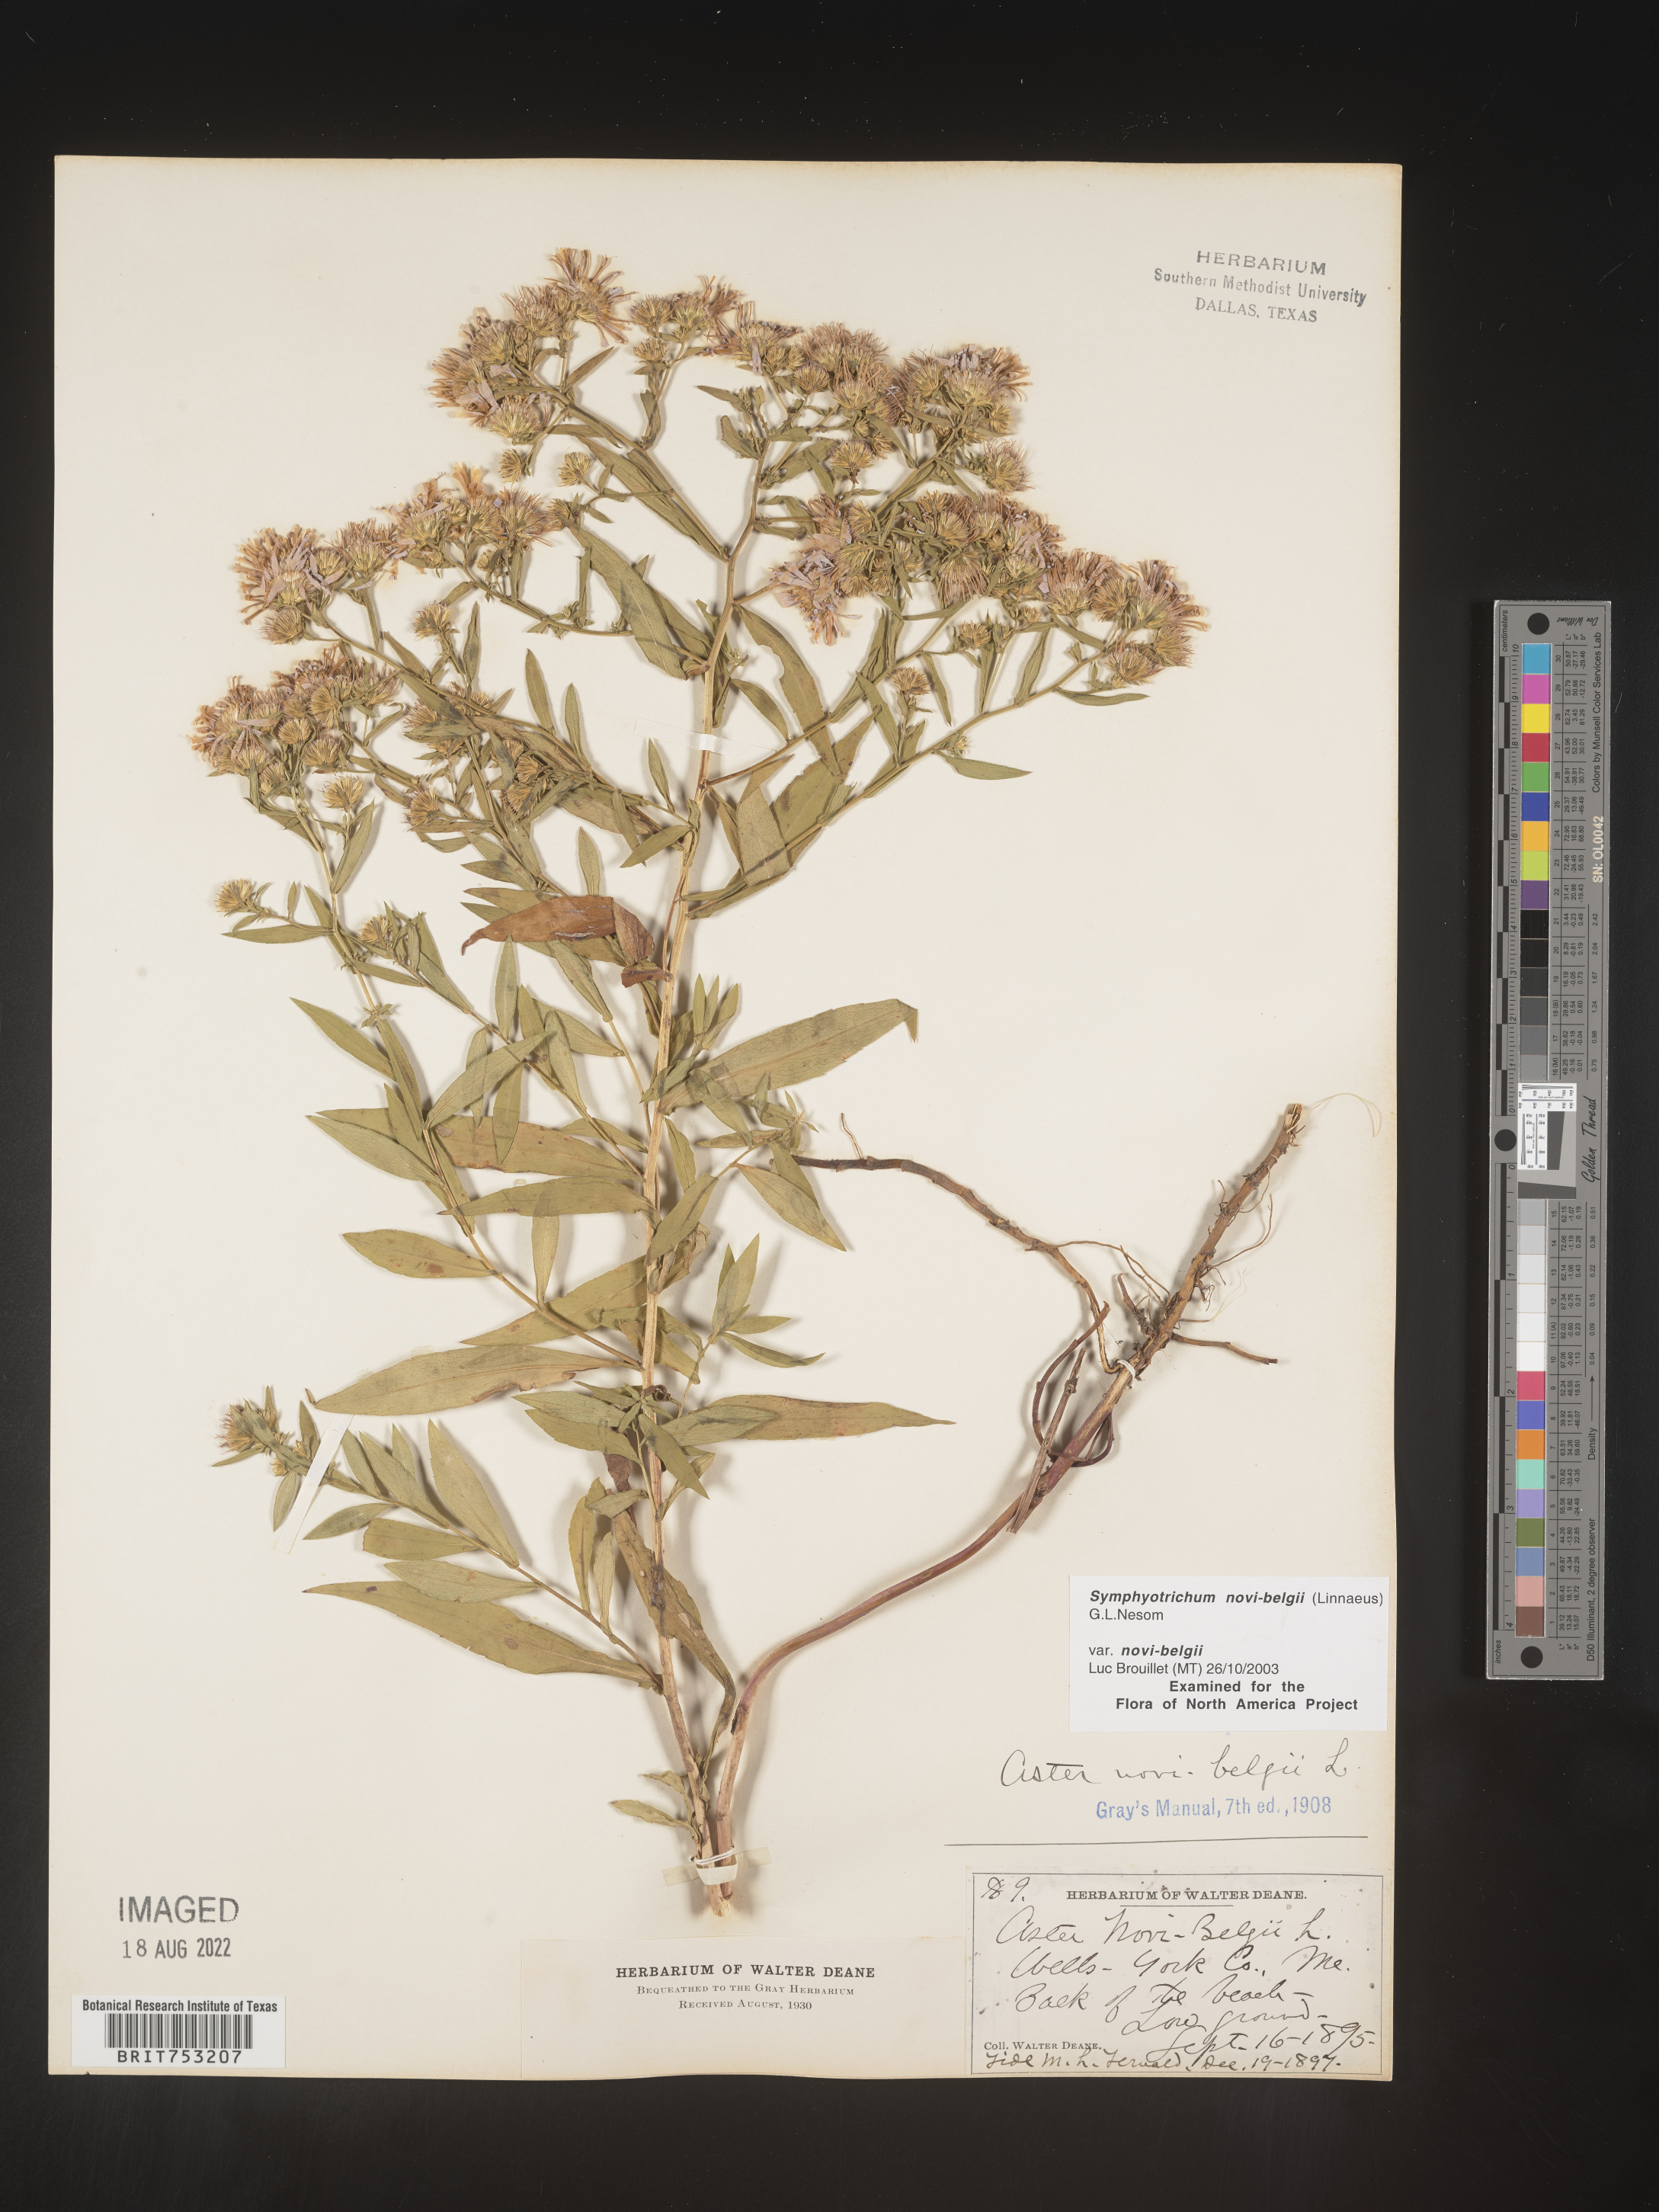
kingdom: Plantae
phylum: Tracheophyta
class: Magnoliopsida
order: Asterales
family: Asteraceae
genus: Symphyotrichum
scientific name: Symphyotrichum novi-belgii
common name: Michaelmas daisy
